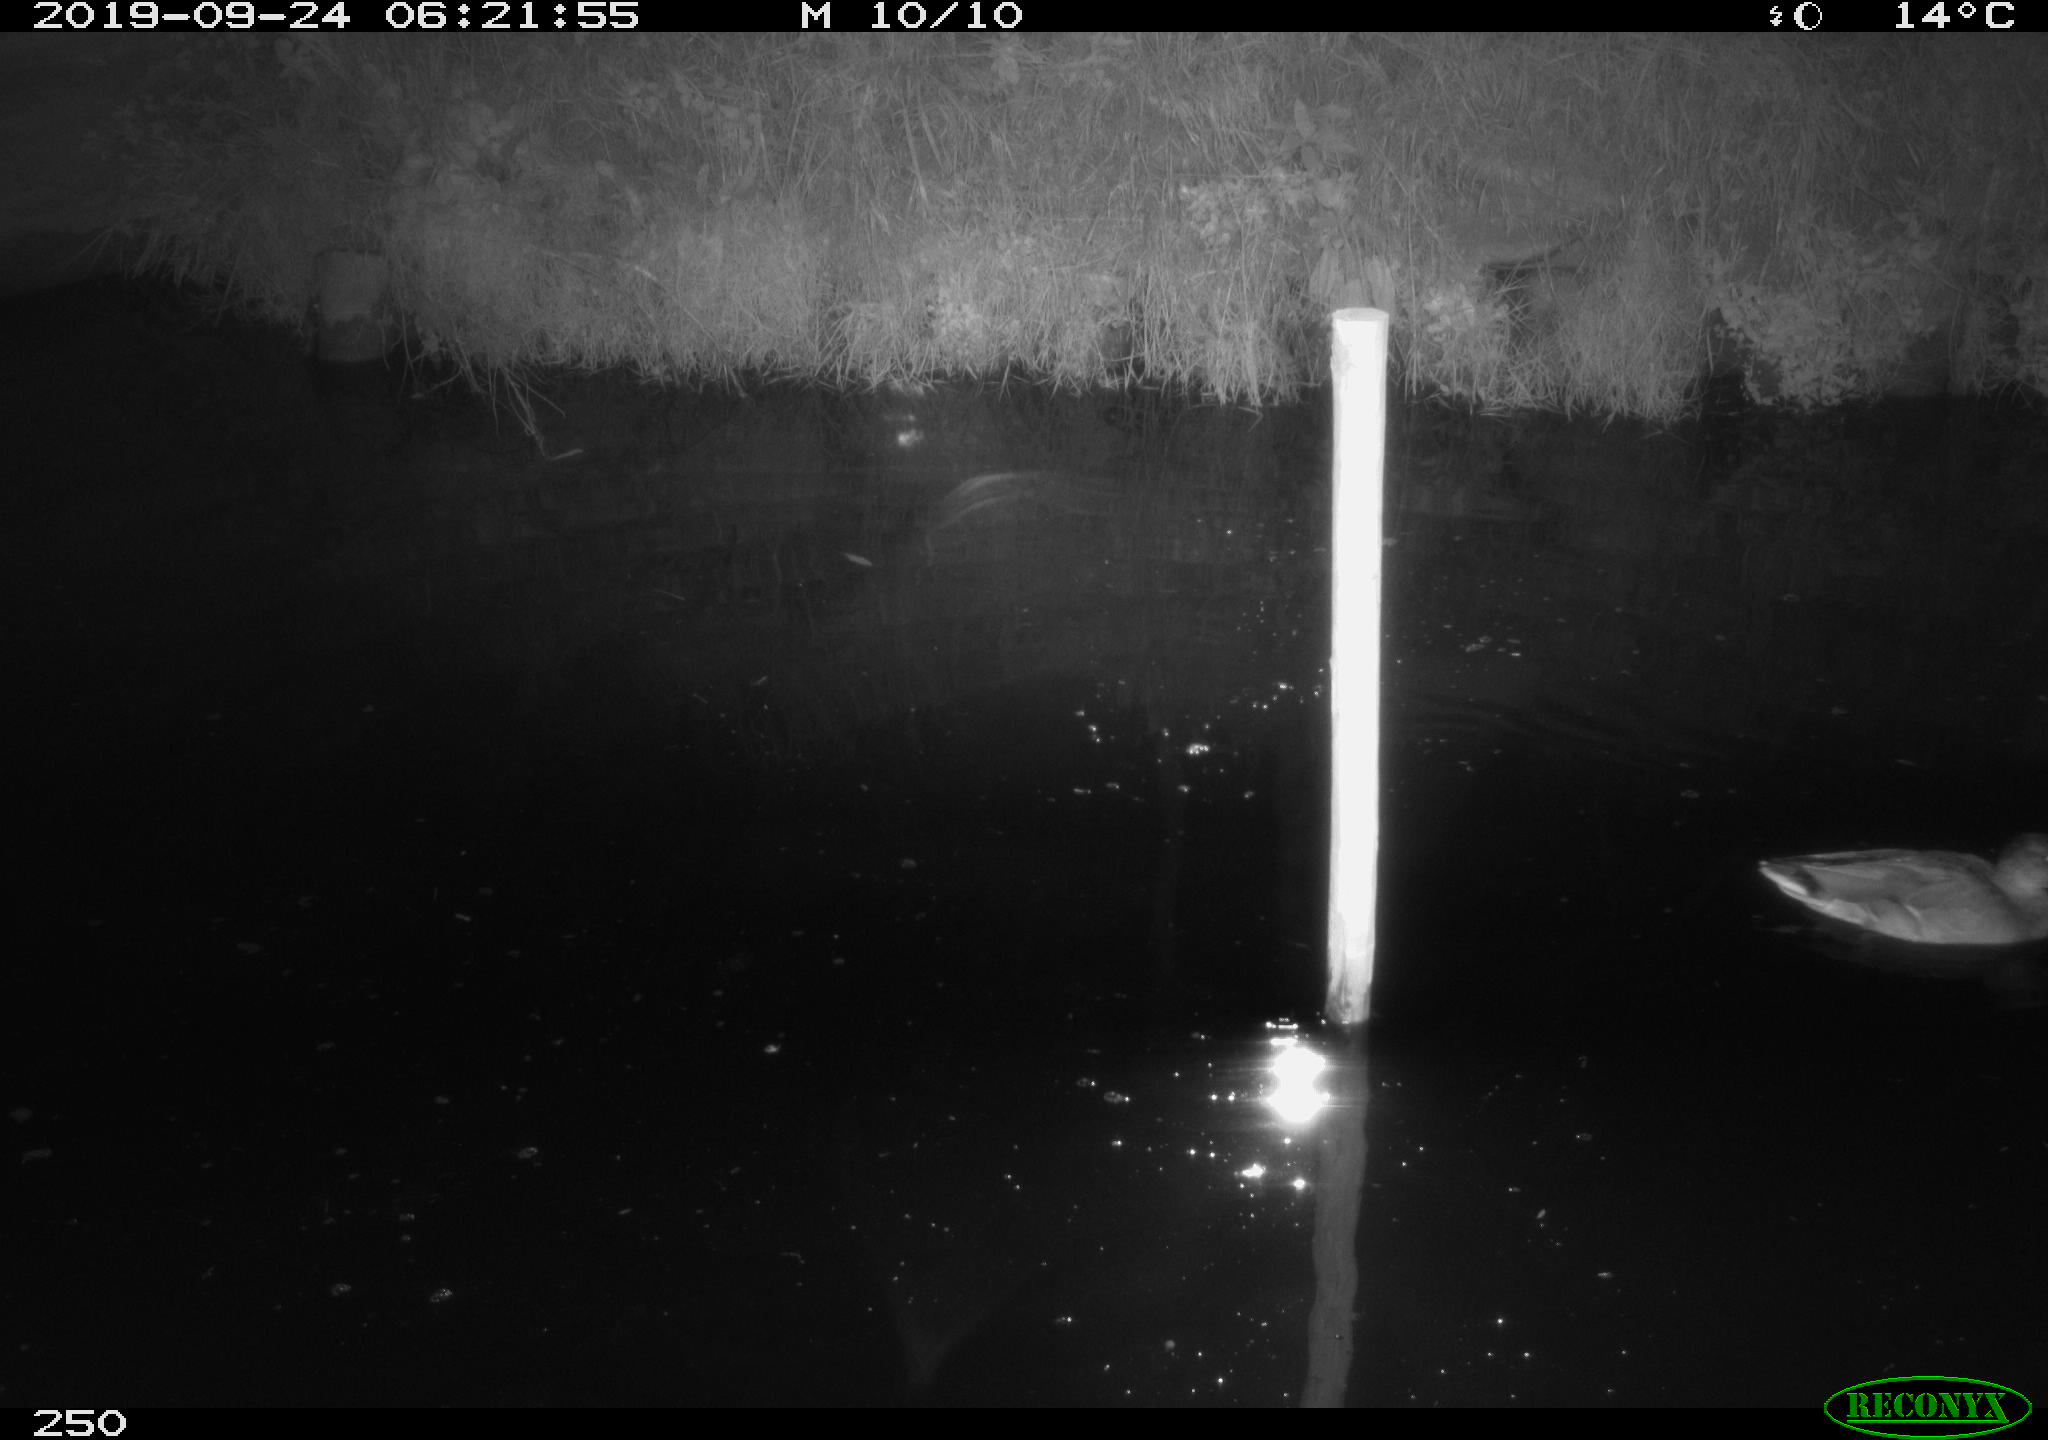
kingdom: Animalia
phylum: Chordata
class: Aves
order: Anseriformes
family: Anatidae
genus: Anas
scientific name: Anas platyrhynchos
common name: Mallard
